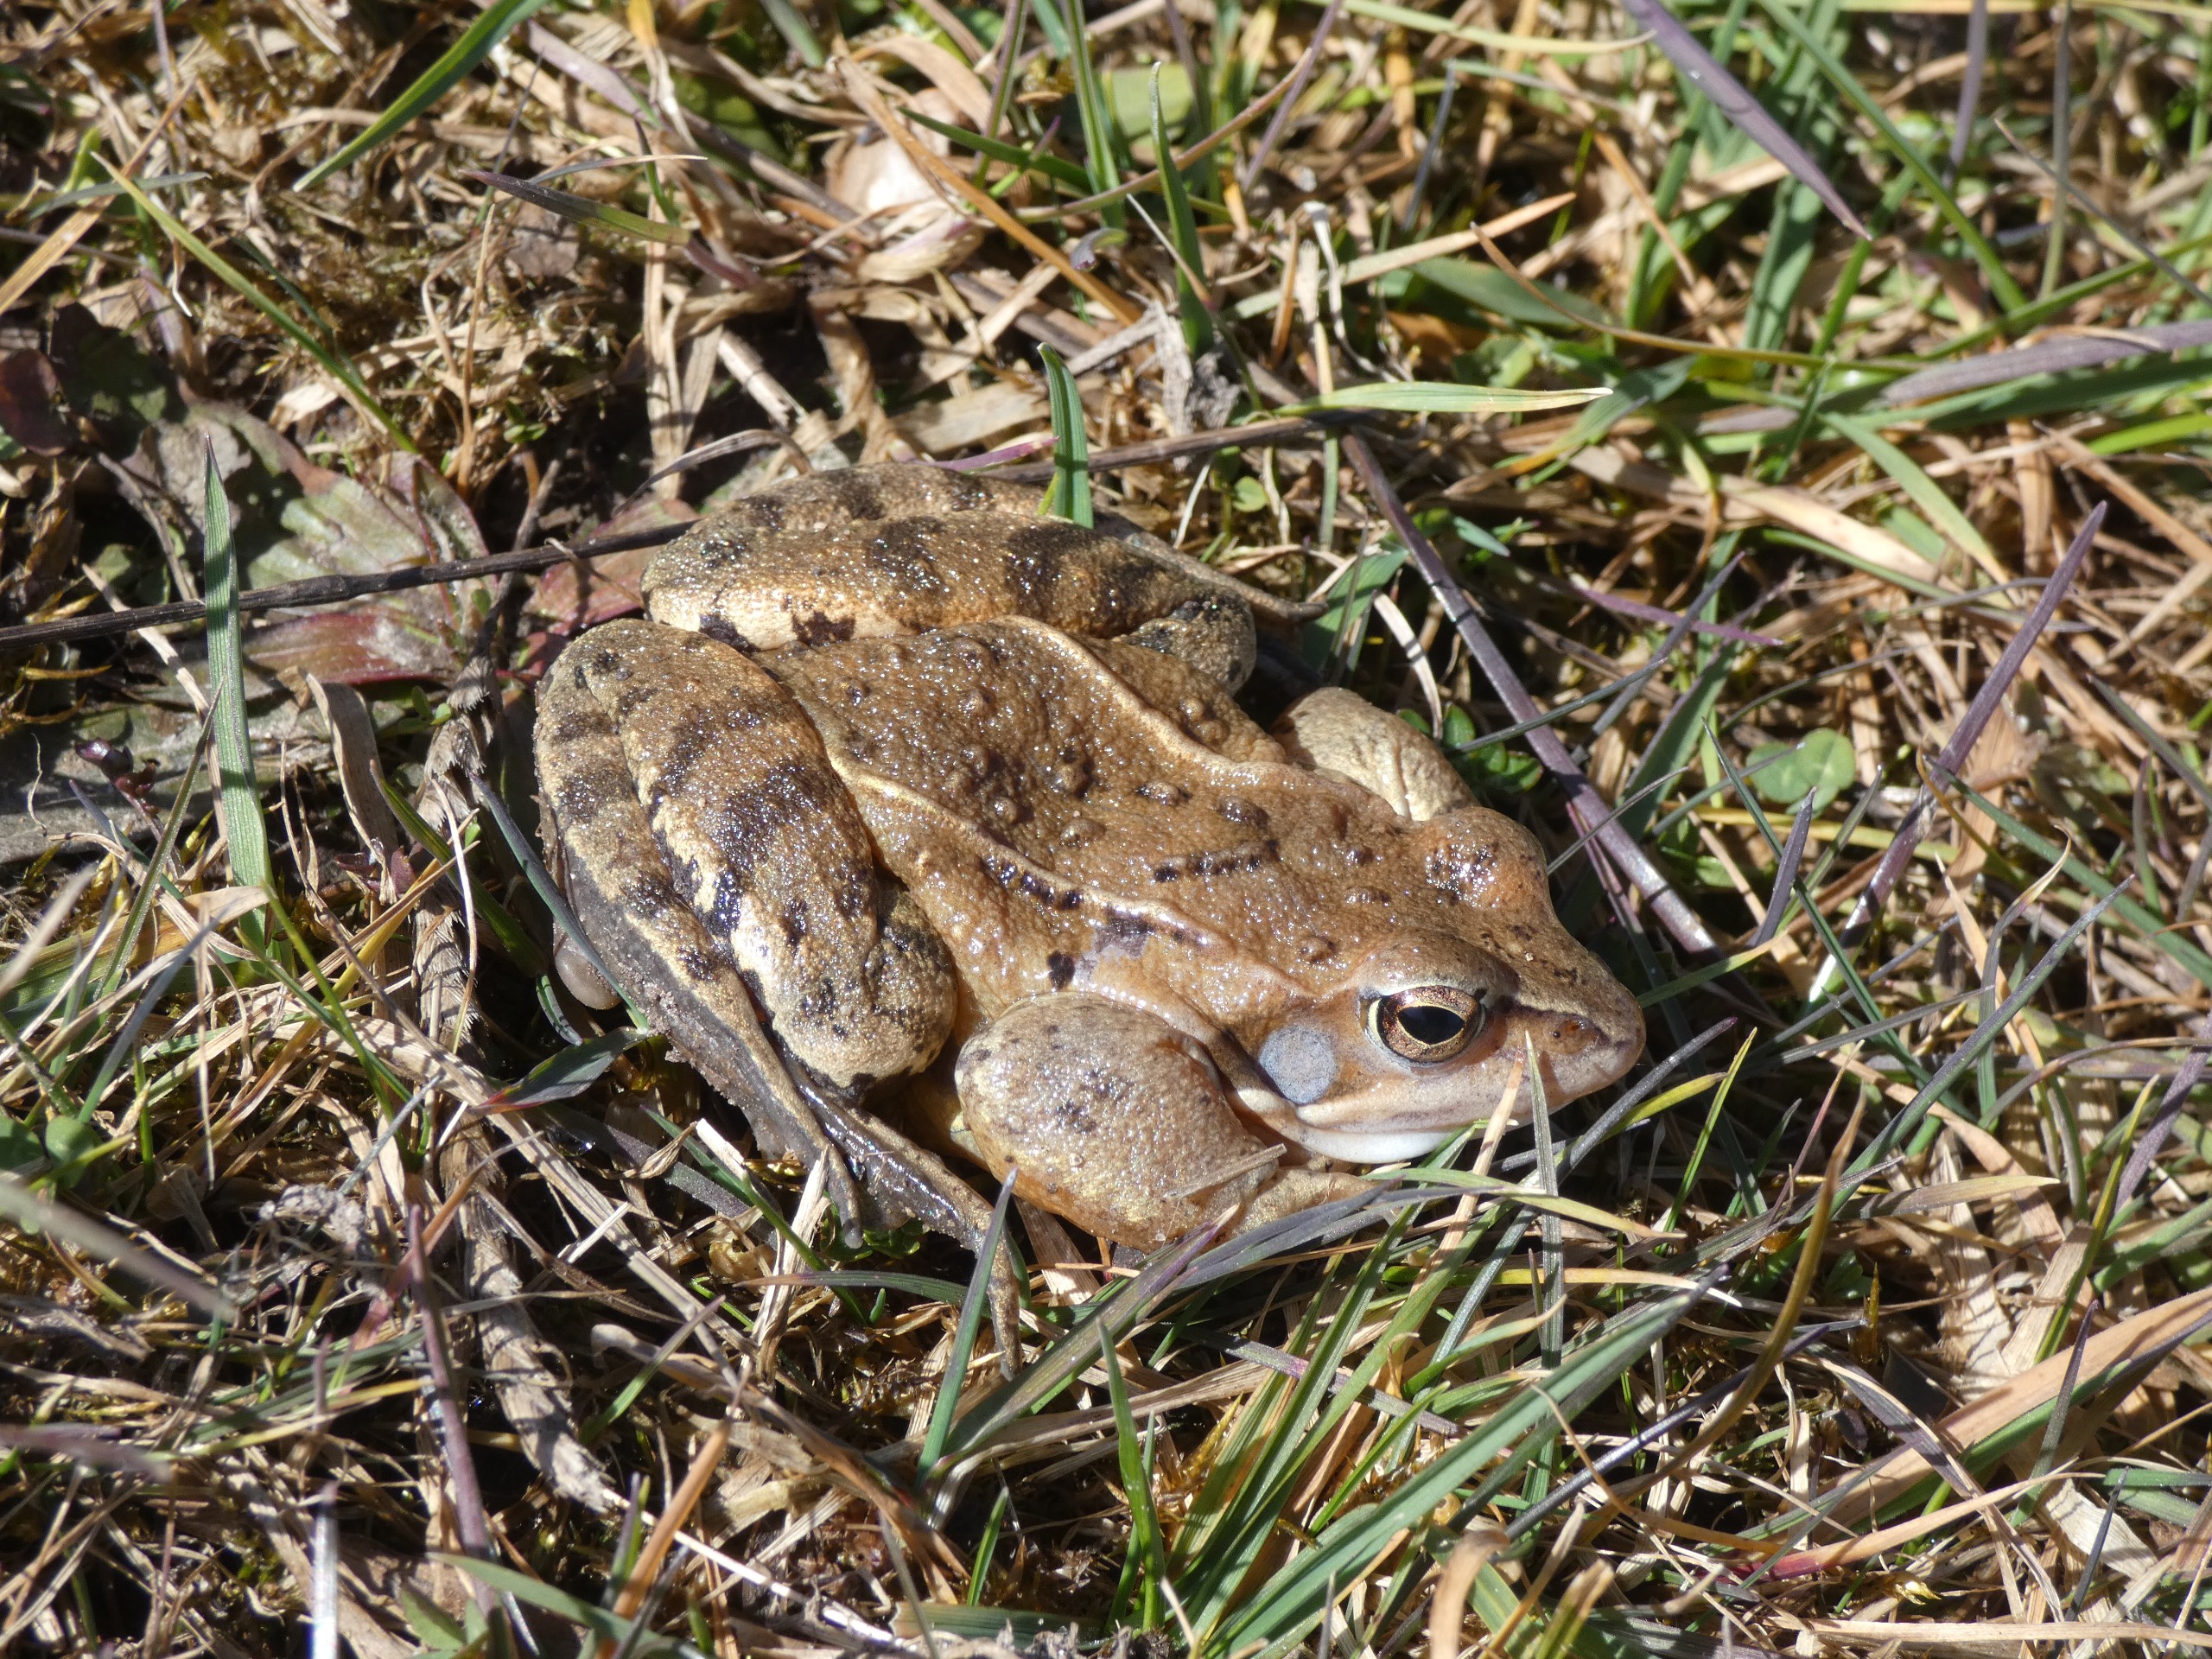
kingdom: Animalia
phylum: Chordata
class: Amphibia
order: Anura
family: Ranidae
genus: Rana
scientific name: Rana arvalis
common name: Spidssnudet frø
